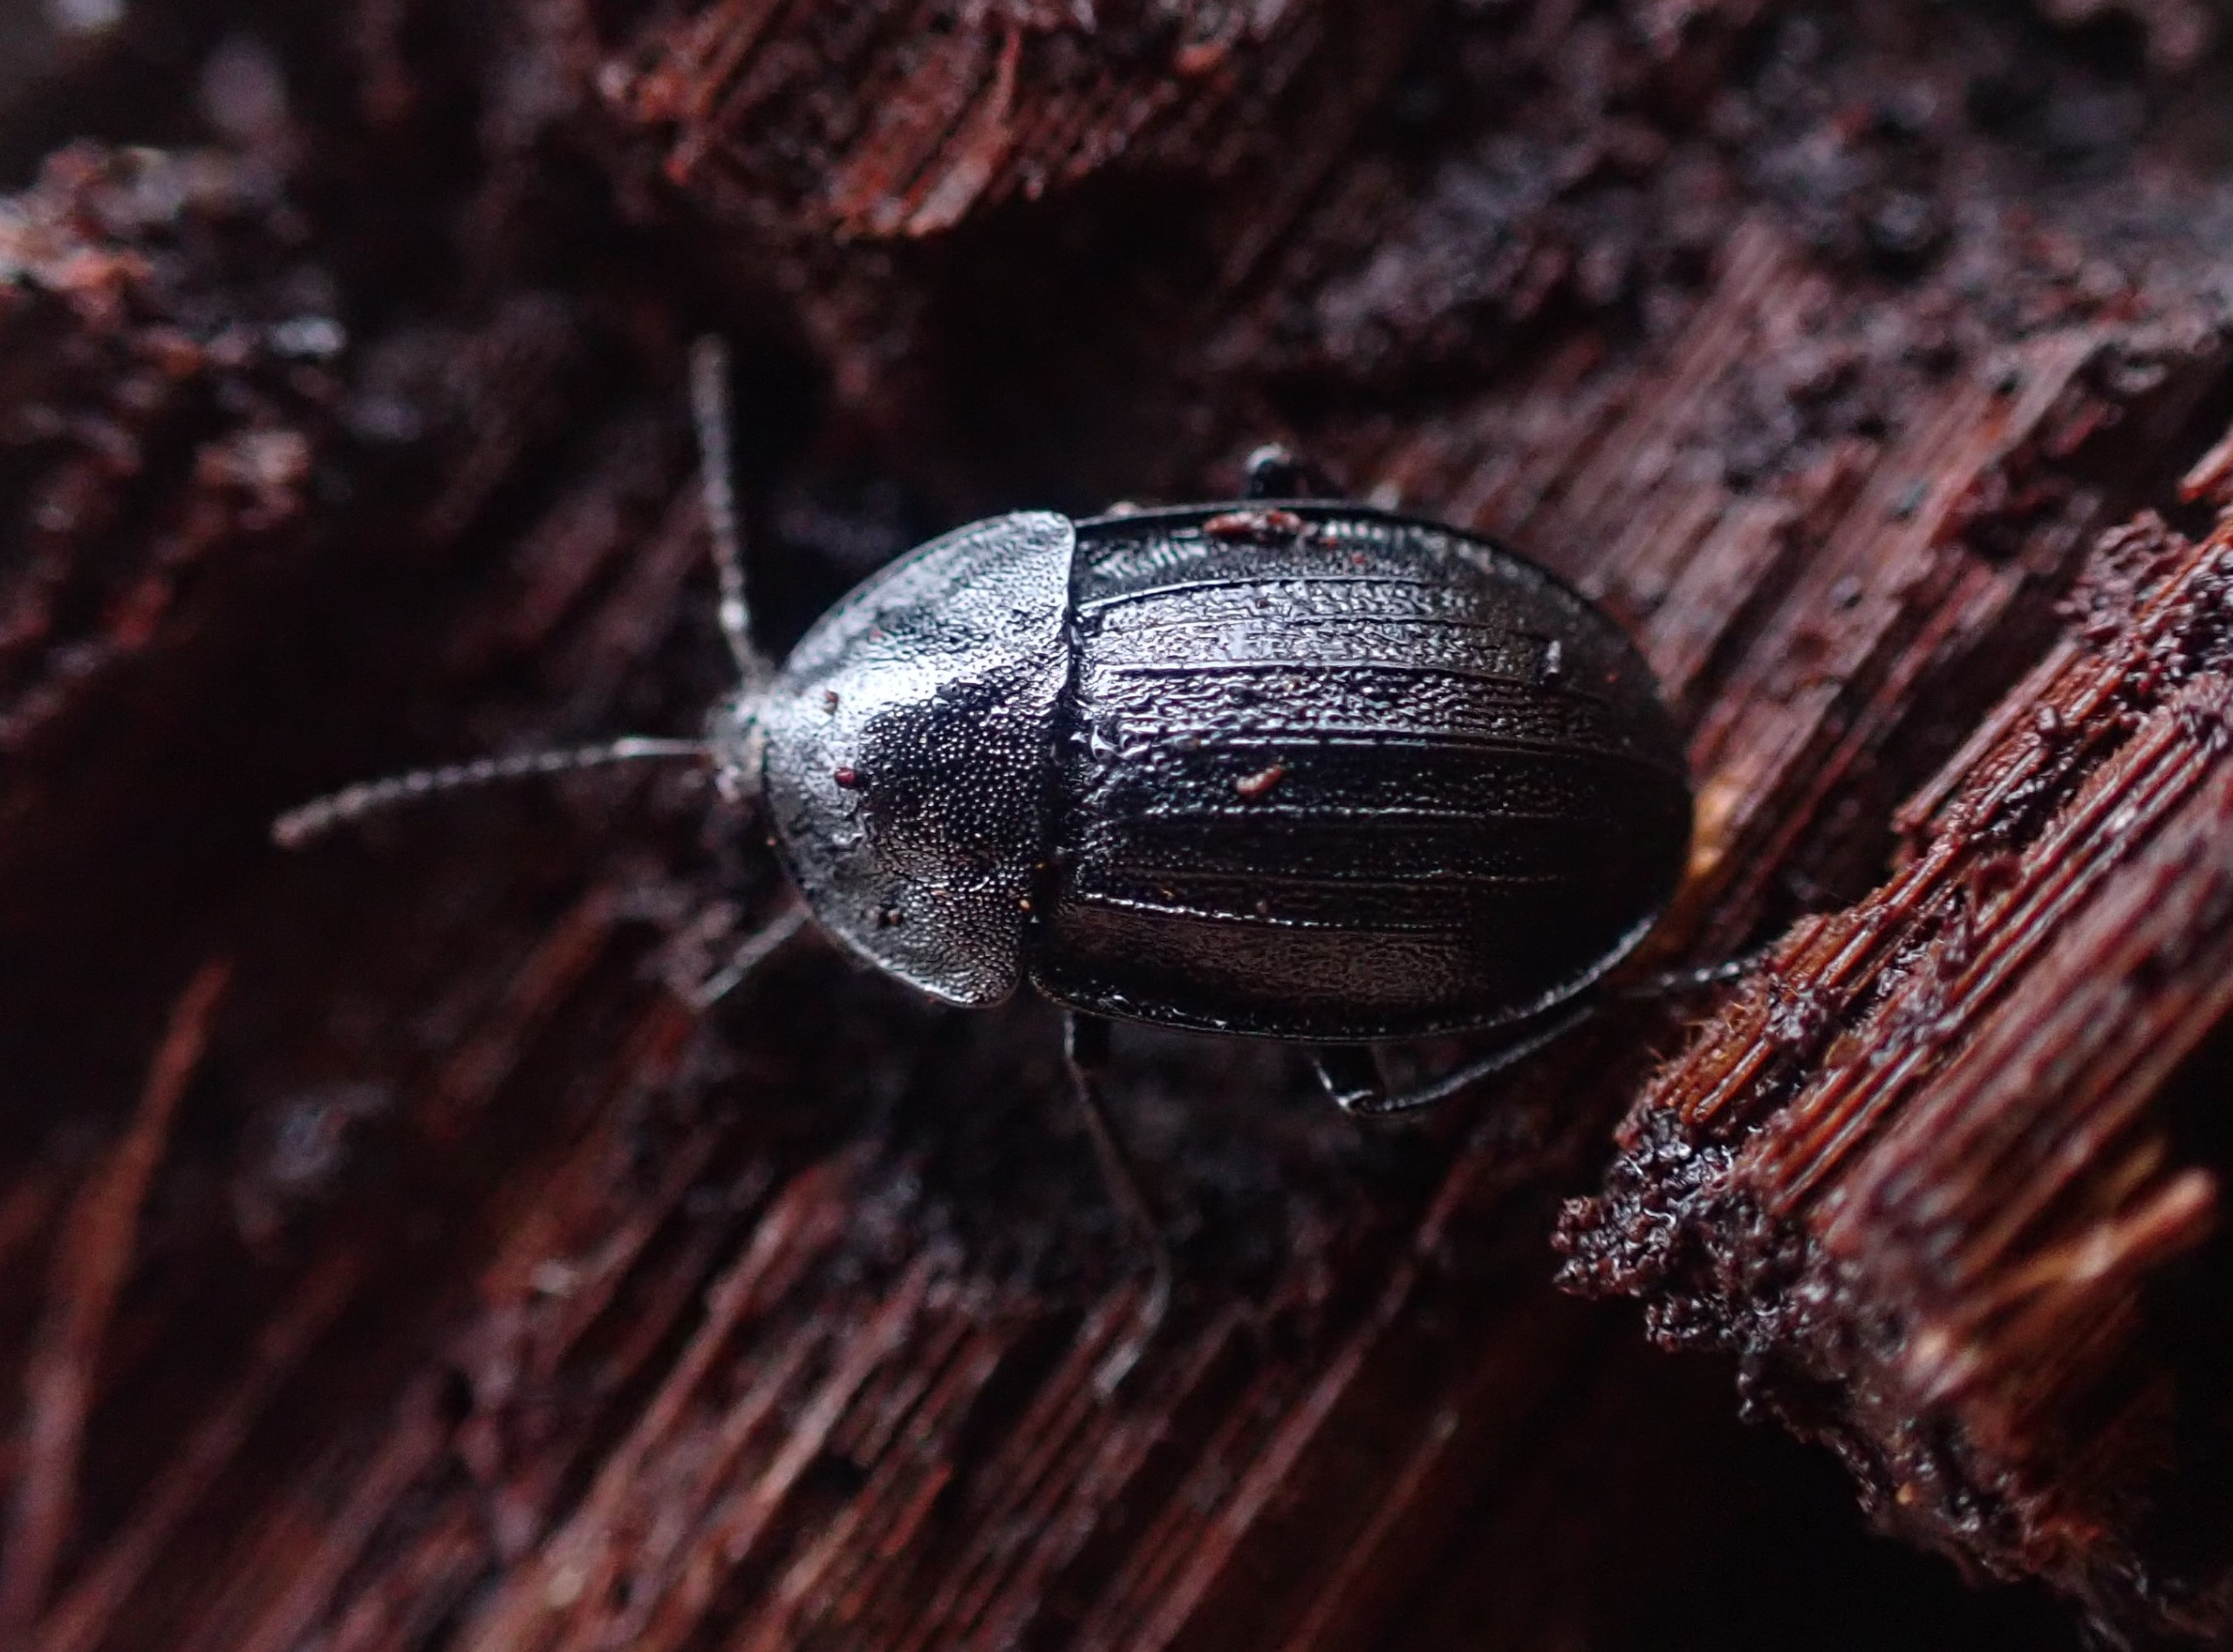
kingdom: Animalia
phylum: Arthropoda
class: Insecta
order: Coleoptera
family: Staphylinidae
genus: Silpha
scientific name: Silpha atrata
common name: Snegleådselbille
